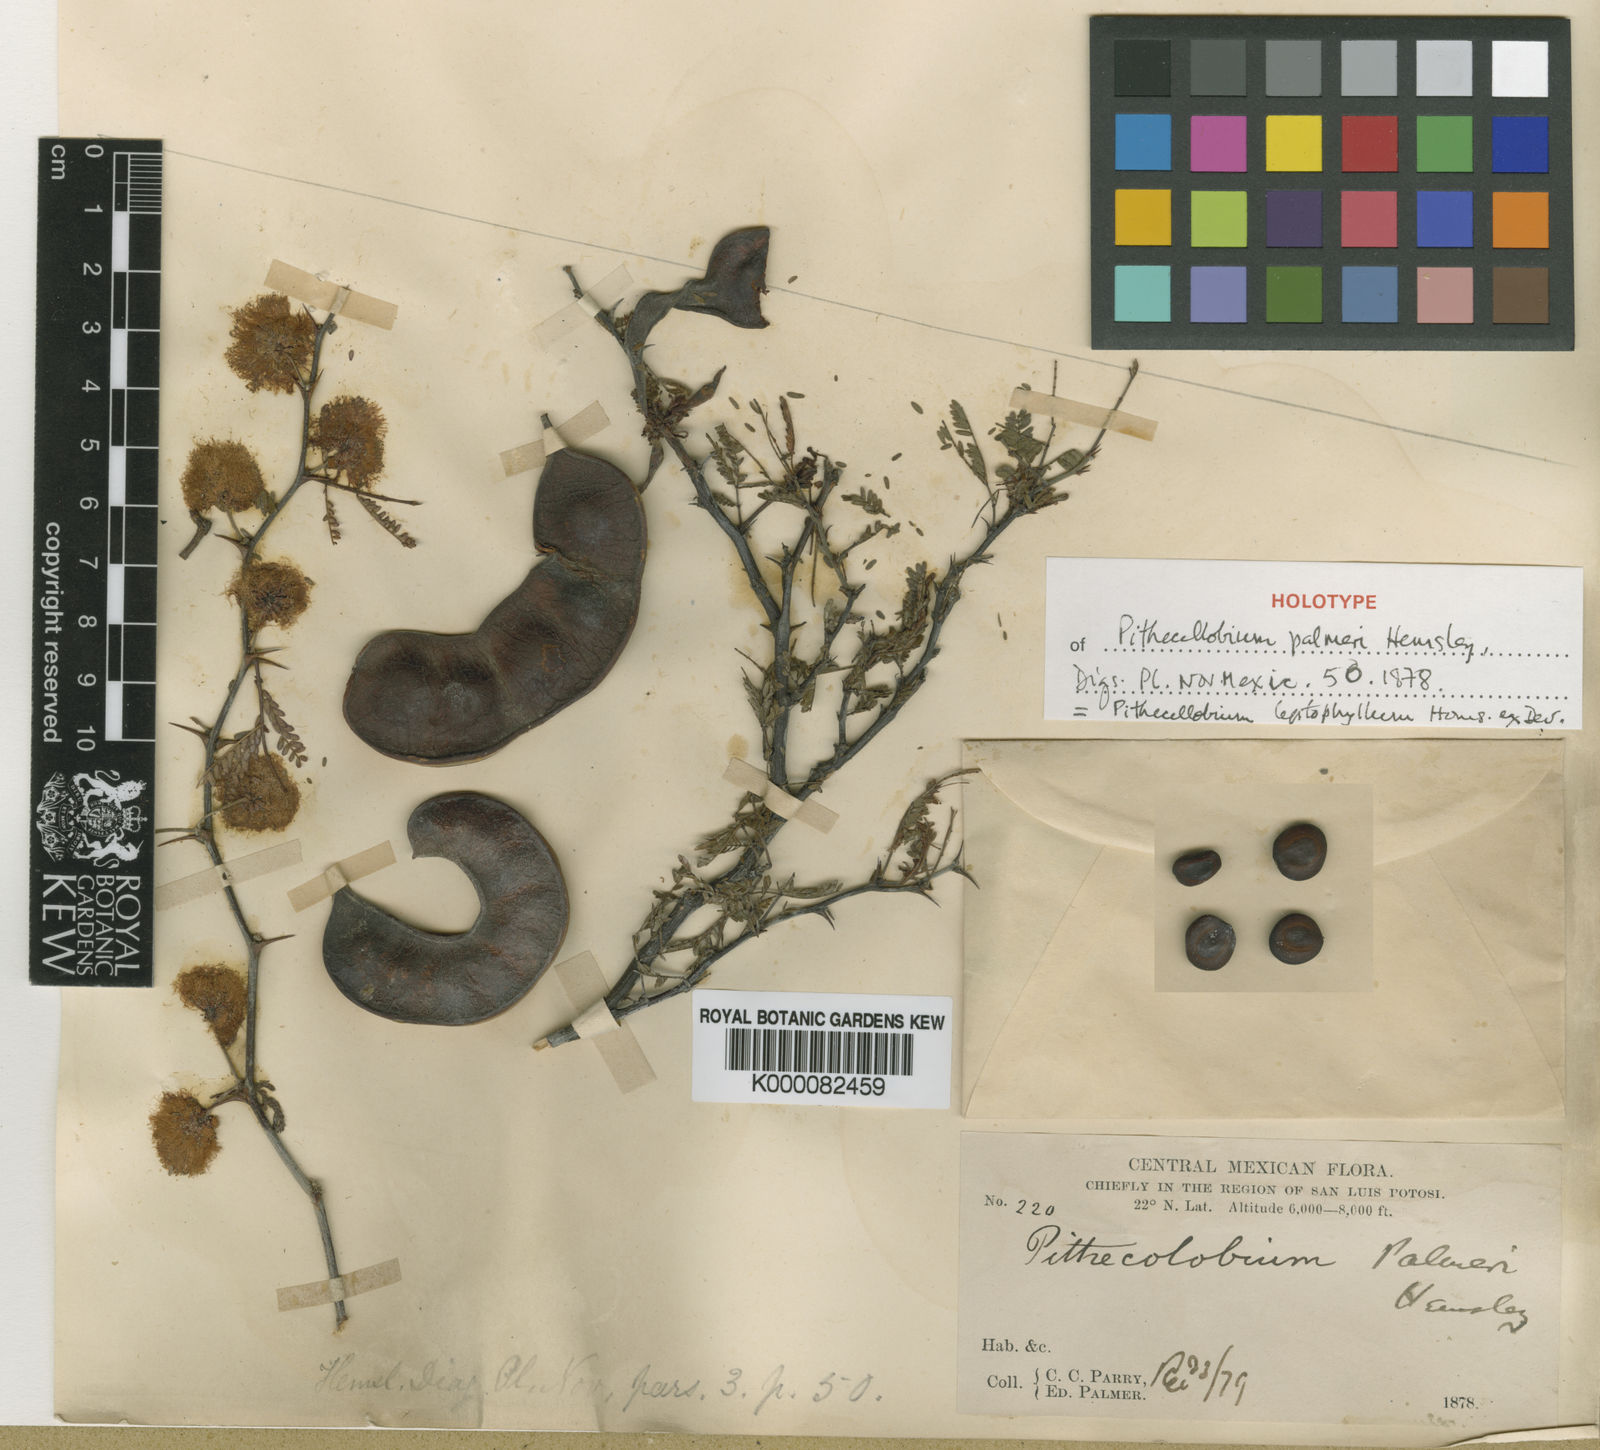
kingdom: Plantae
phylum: Tracheophyta
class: Magnoliopsida
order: Fabales
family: Fabaceae
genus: Havardia
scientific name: Havardia
